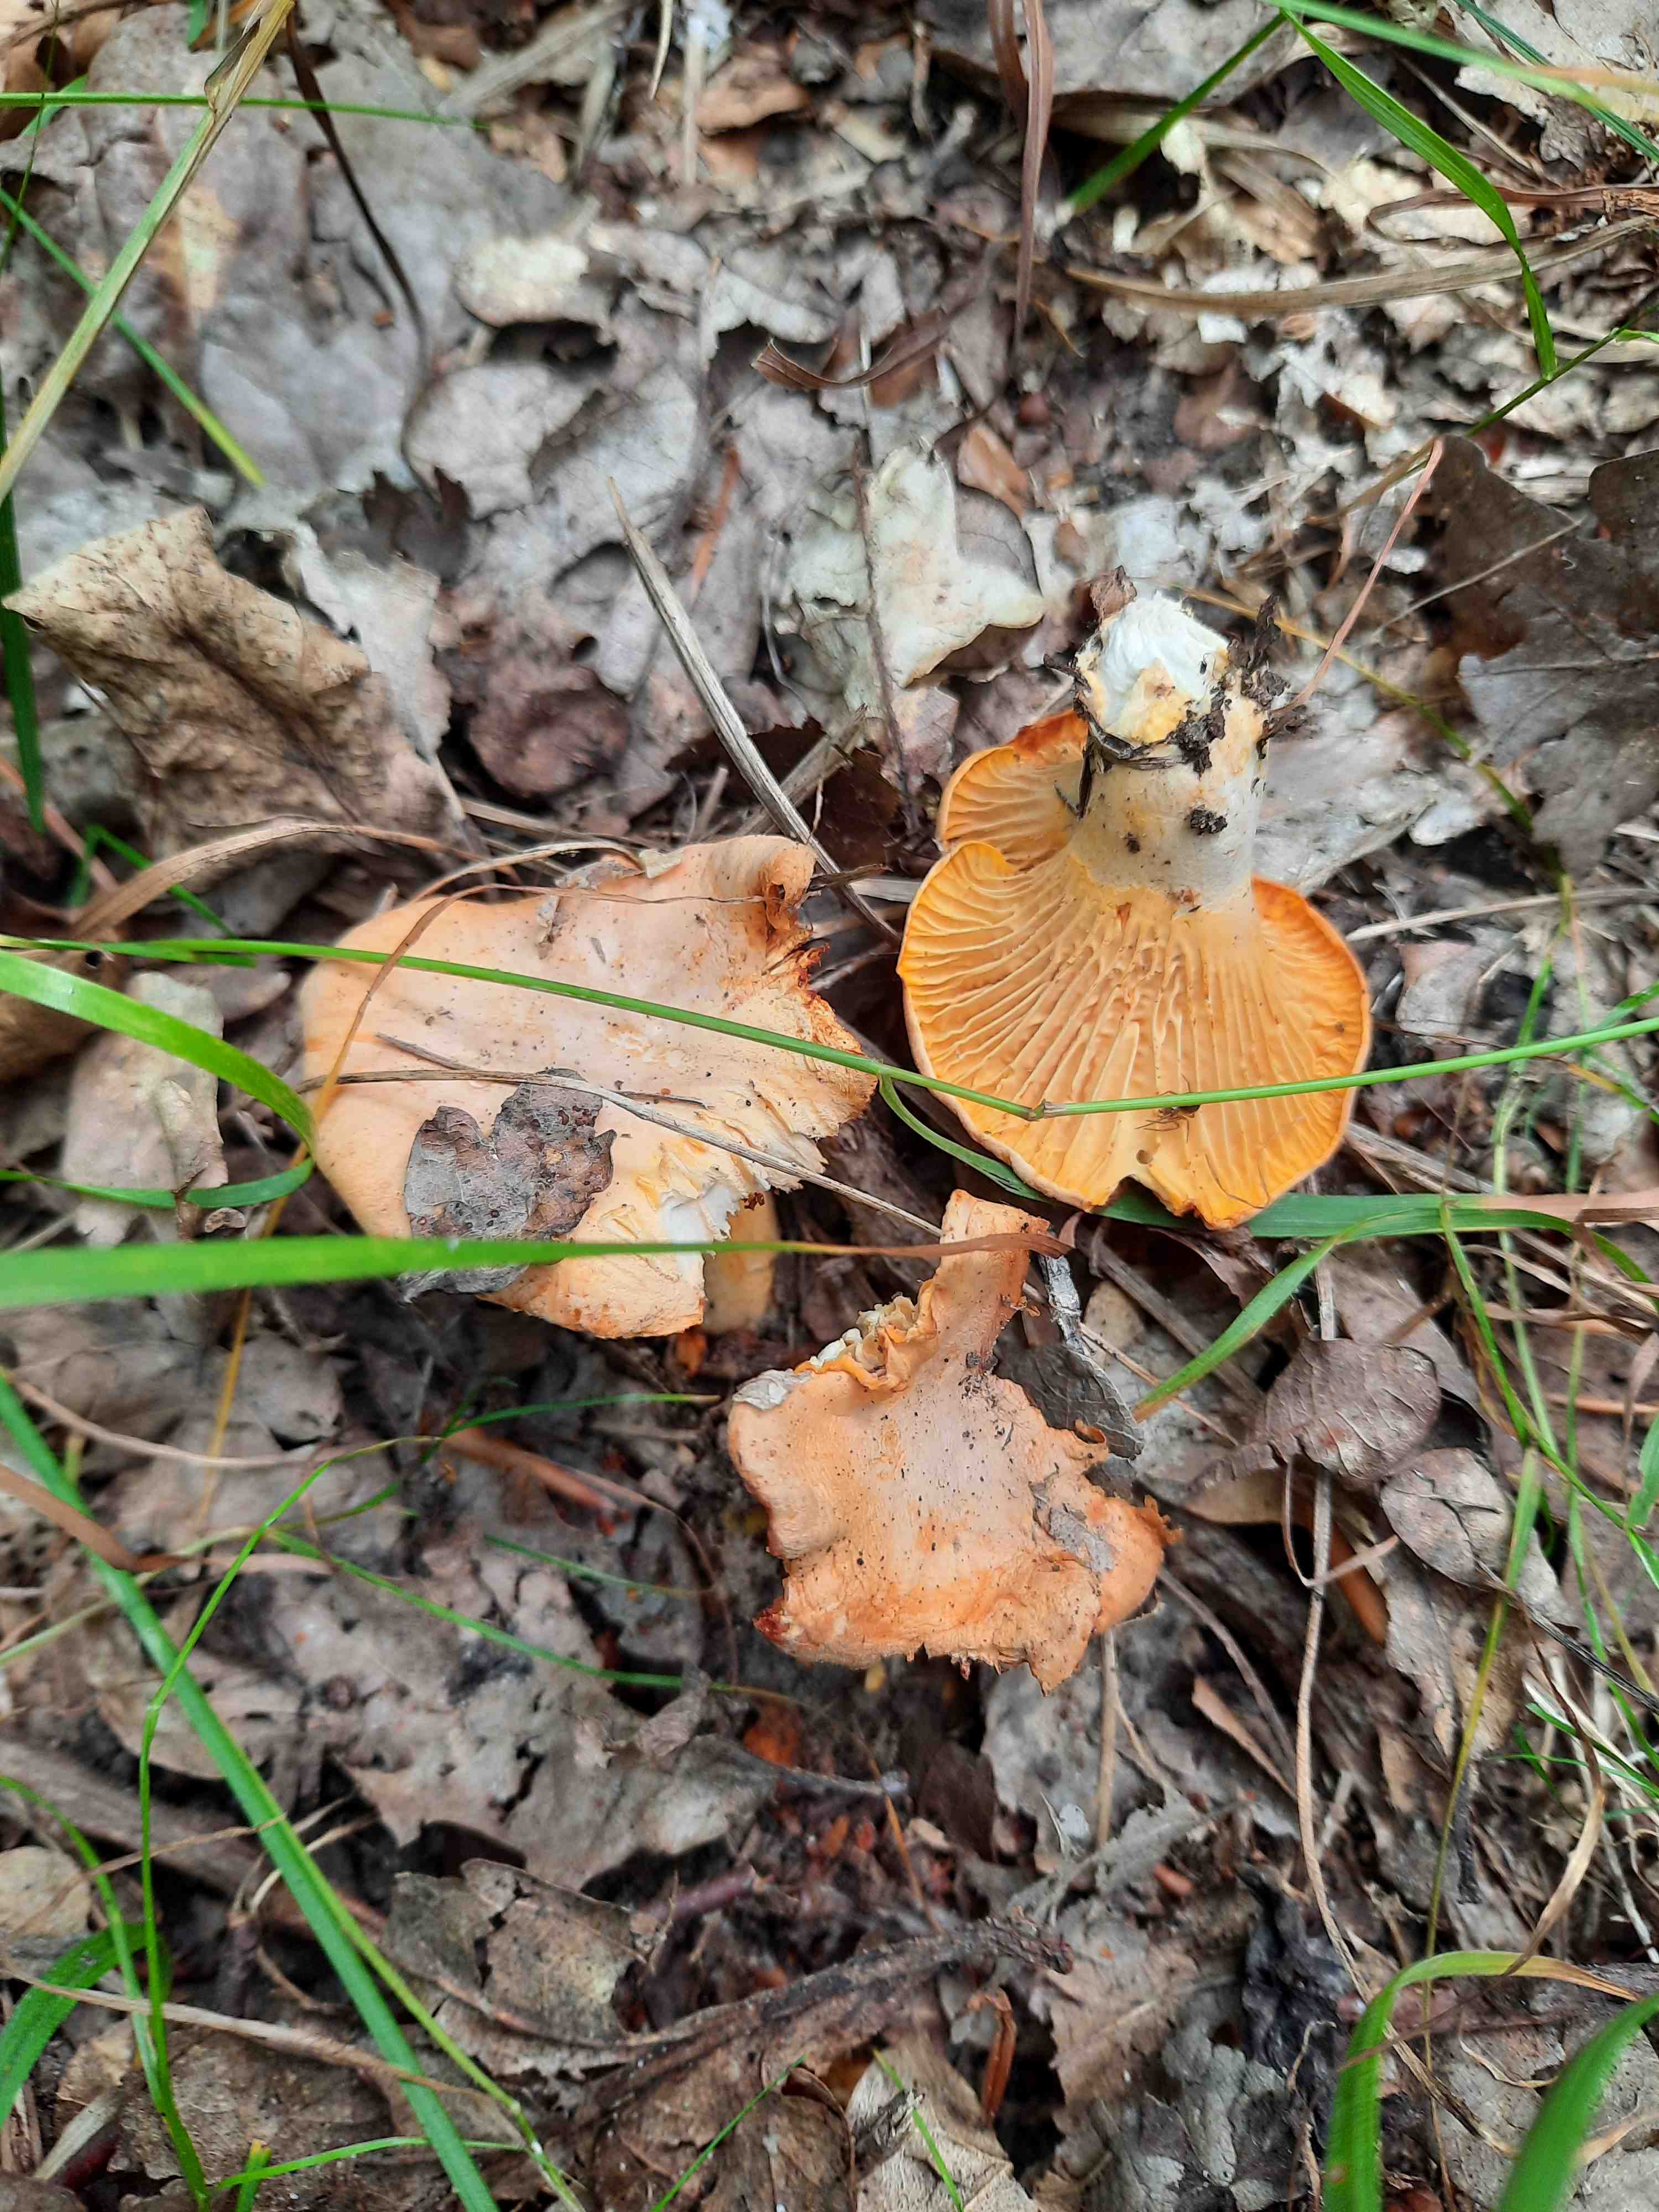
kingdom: Fungi
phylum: Basidiomycota
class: Agaricomycetes
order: Cantharellales
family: Hydnaceae
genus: Cantharellus
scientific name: Cantharellus cibarius
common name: almindelig kantarel
